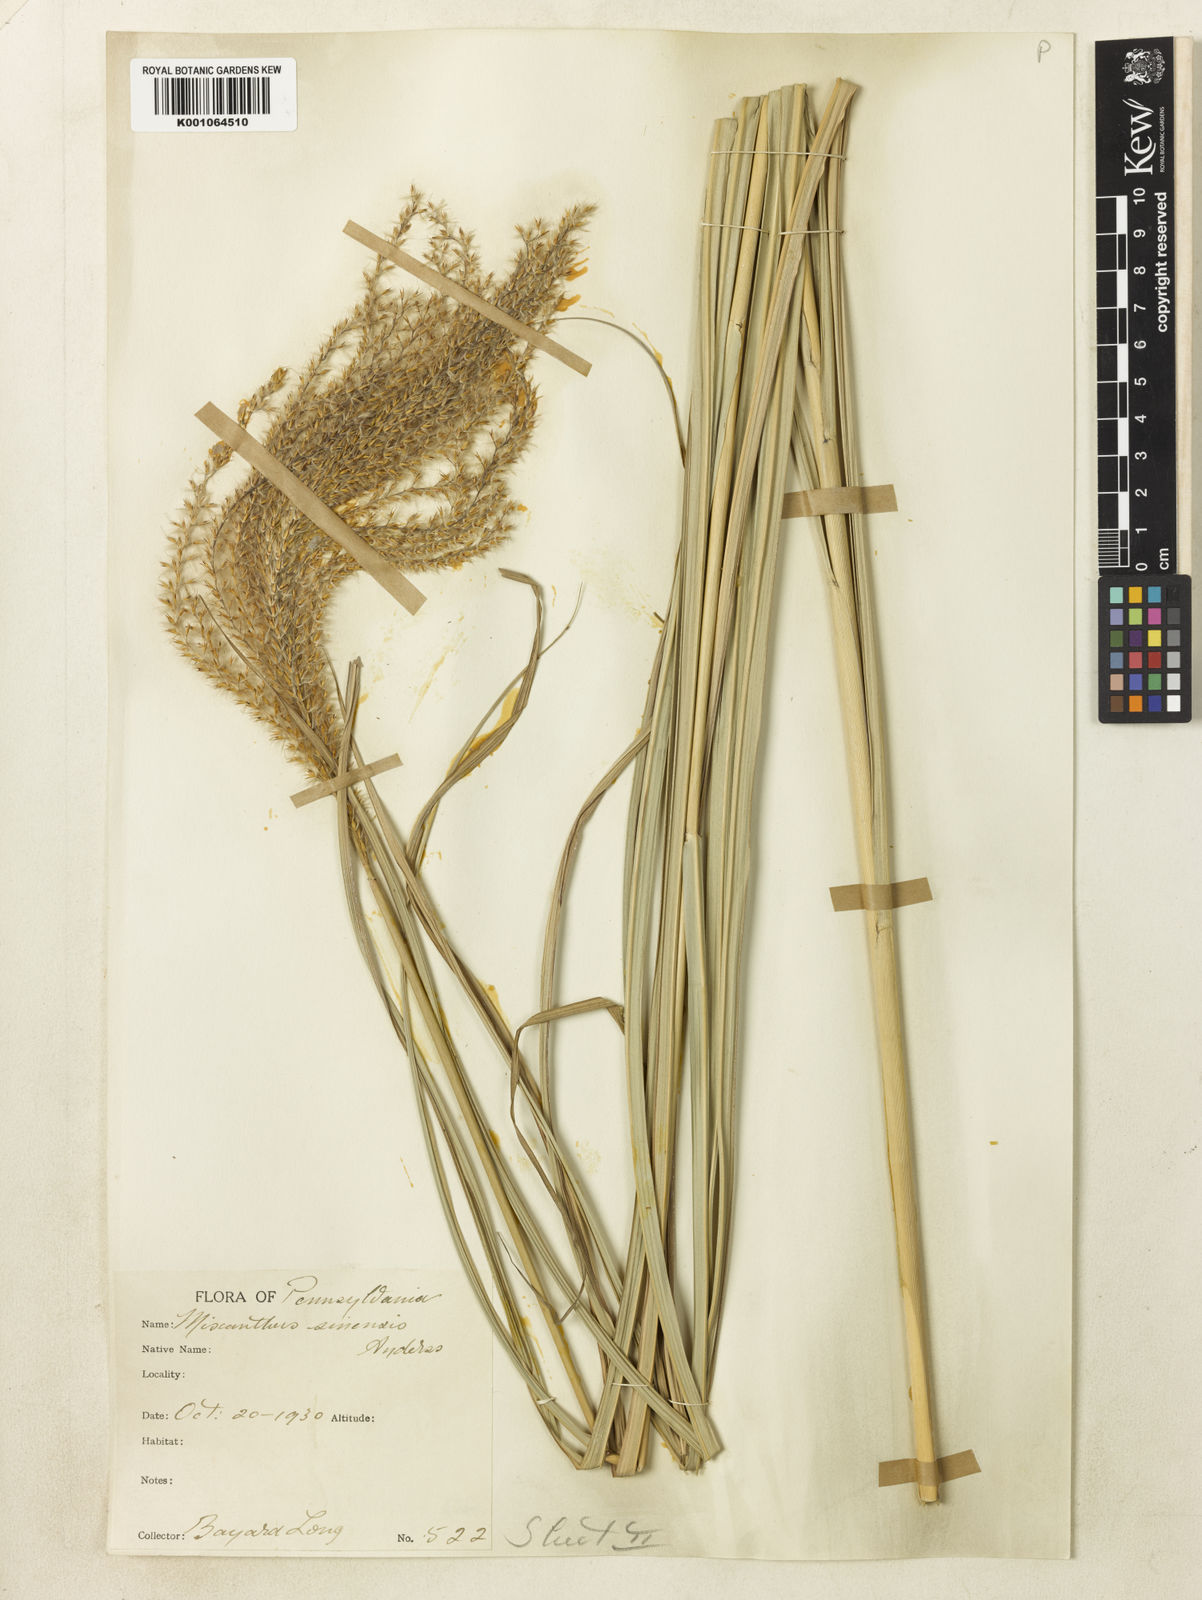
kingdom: Plantae
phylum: Tracheophyta
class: Liliopsida
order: Poales
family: Poaceae
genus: Miscanthus
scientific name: Miscanthus sinensis
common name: Chinese silvergrass
